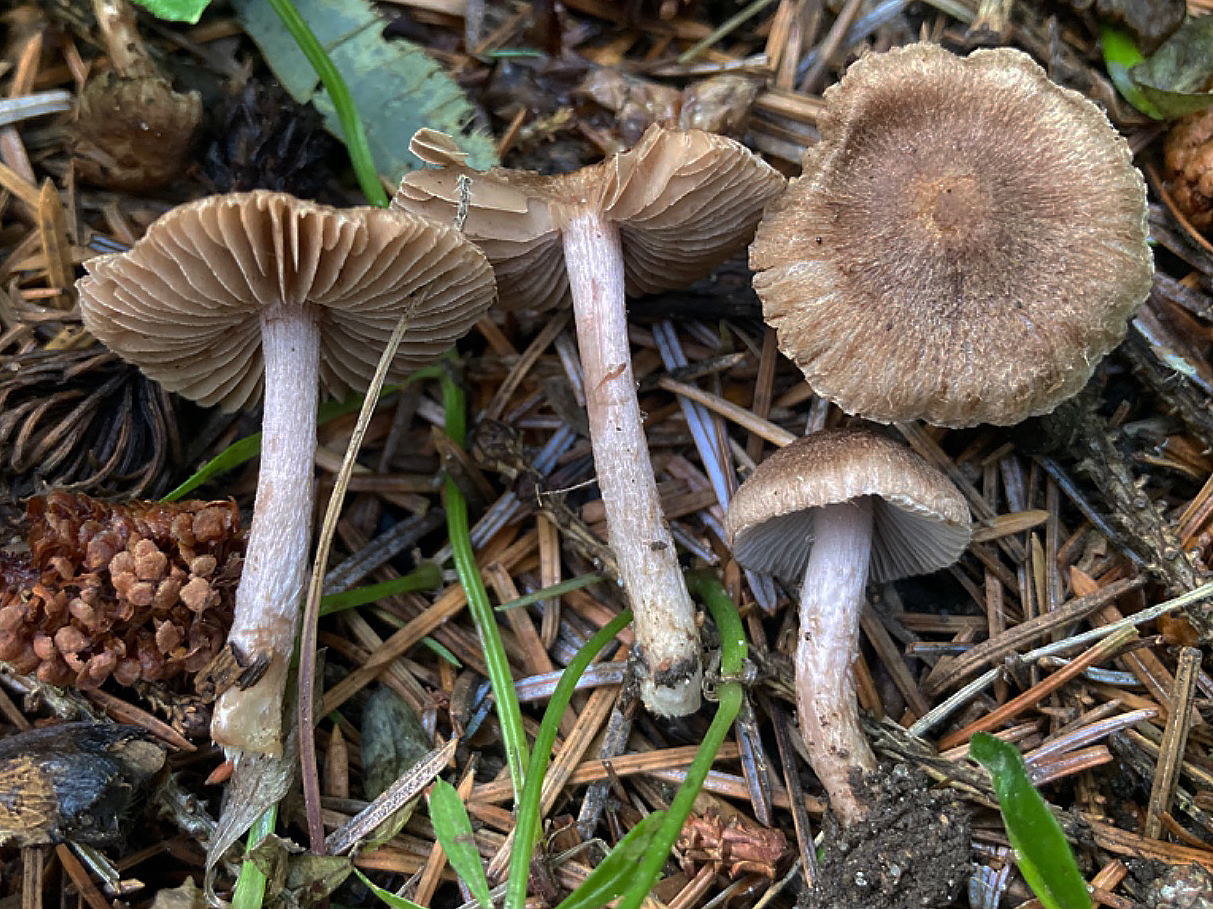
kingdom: Fungi
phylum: Basidiomycota
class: Agaricomycetes
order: Agaricales
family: Inocybaceae
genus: Inocybe
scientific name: Inocybe cincinnata
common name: lillabladet trævlhat
